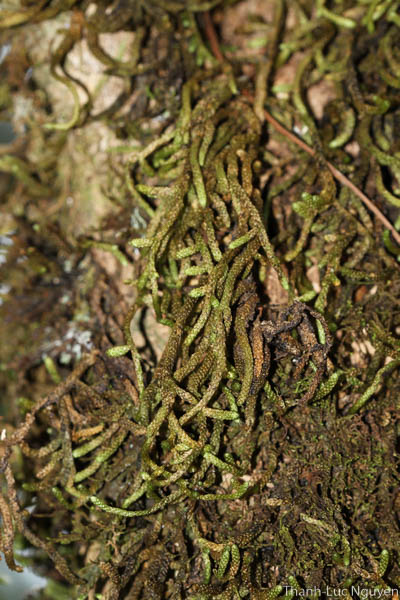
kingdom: Plantae
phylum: Bryophyta
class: Bryopsida
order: Hypnales
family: Meteoriaceae
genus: Meteorium
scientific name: Meteorium subpolytrichum
